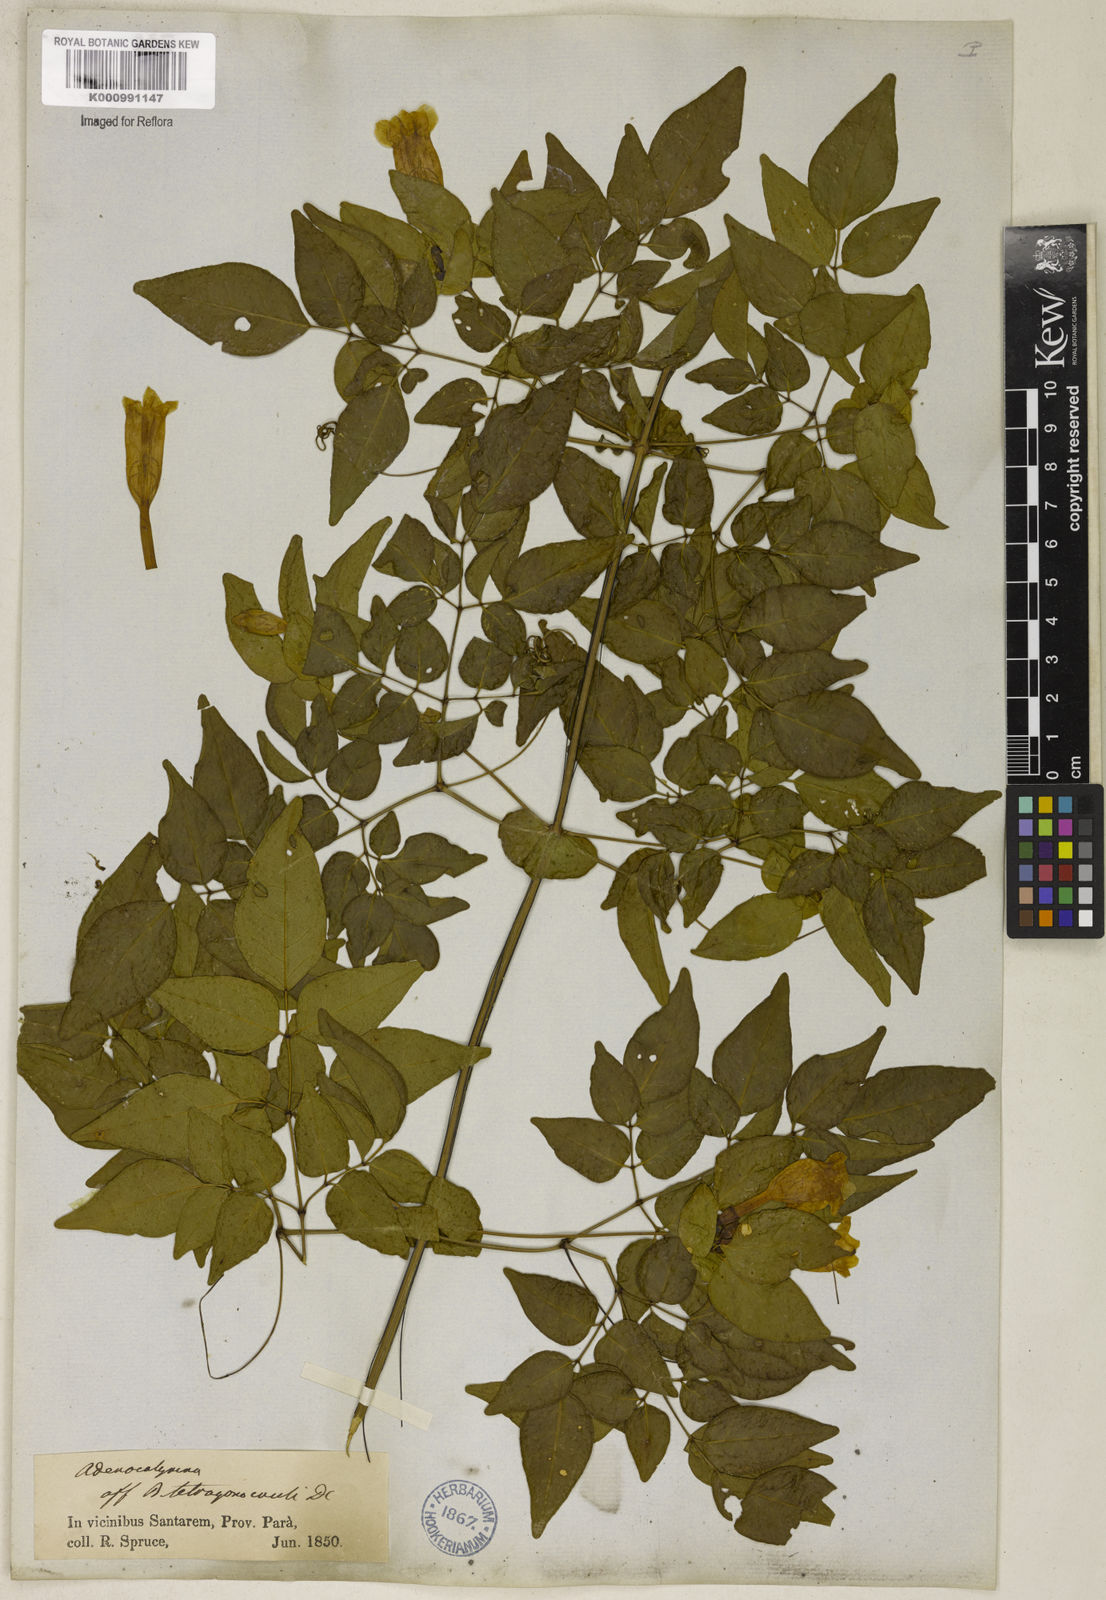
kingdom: Plantae
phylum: Tracheophyta
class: Magnoliopsida
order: Lamiales
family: Bignoniaceae
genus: Pleonotoma
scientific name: Pleonotoma jasminifolia
